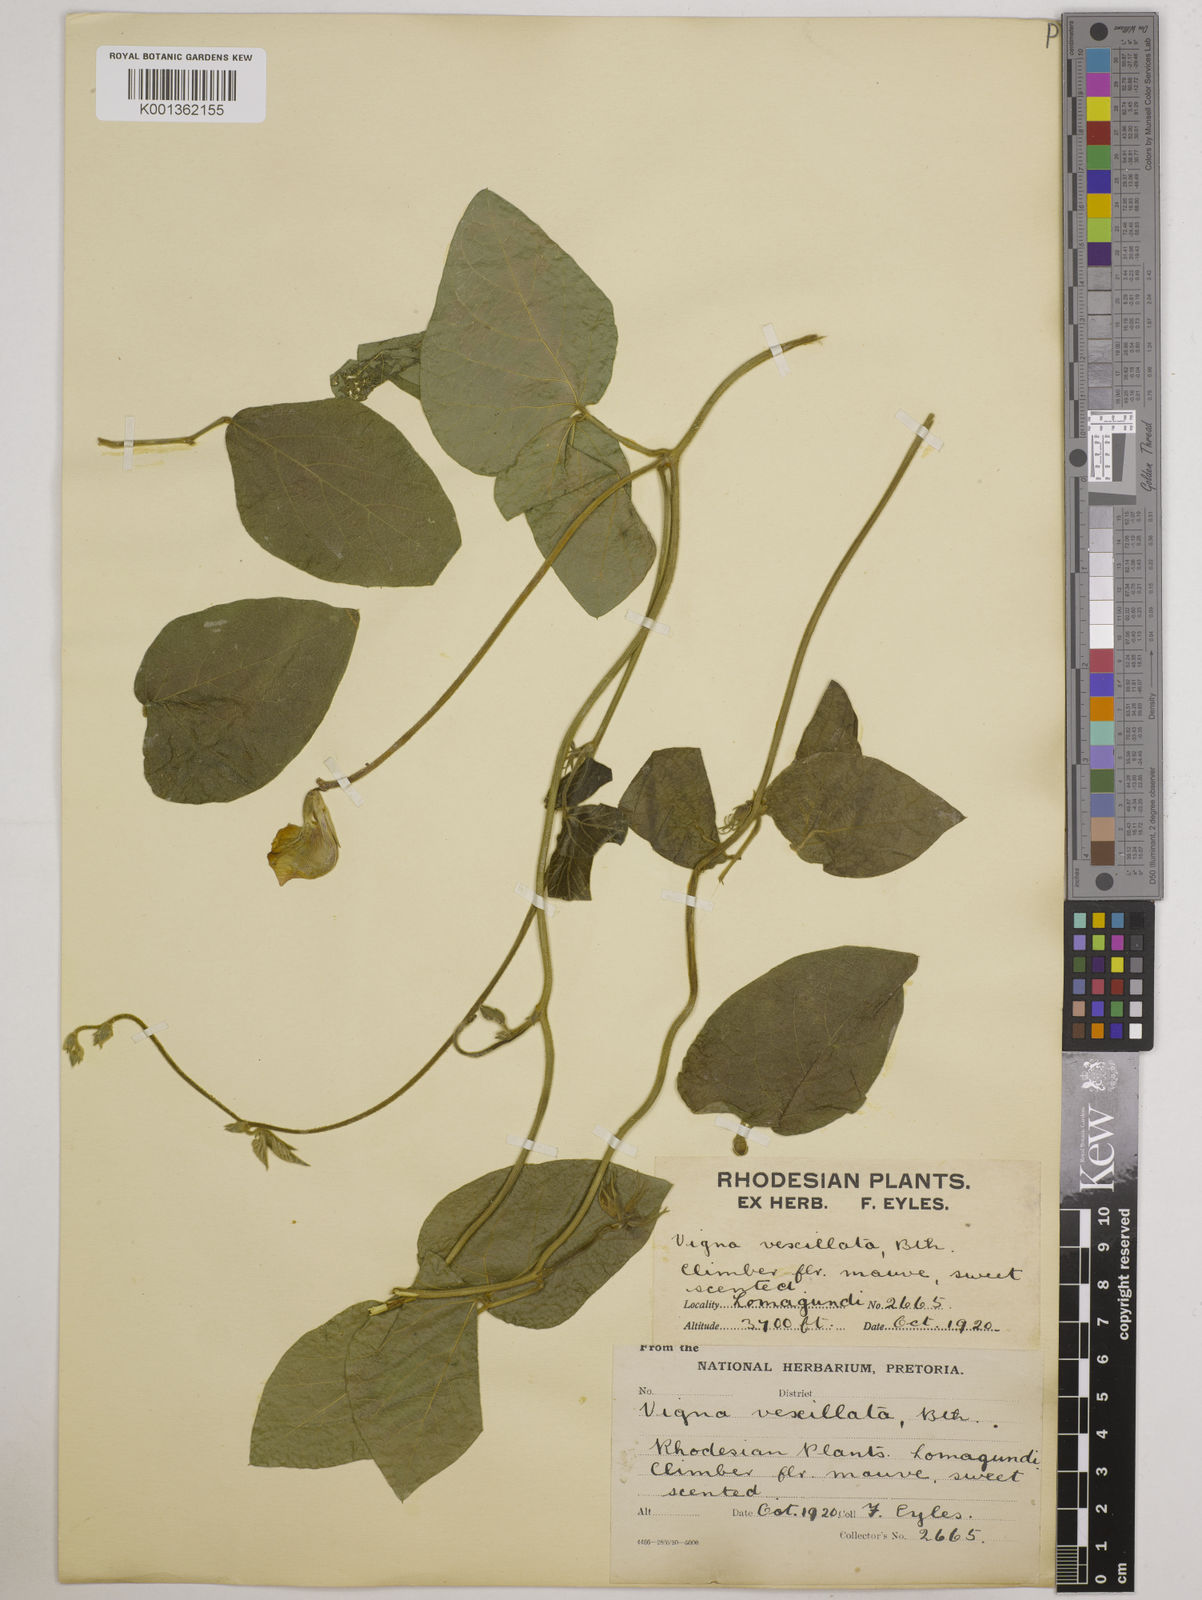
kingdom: Plantae
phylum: Tracheophyta
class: Magnoliopsida
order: Fabales
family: Fabaceae
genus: Vigna
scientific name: Vigna vexillata
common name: Zombi pea
